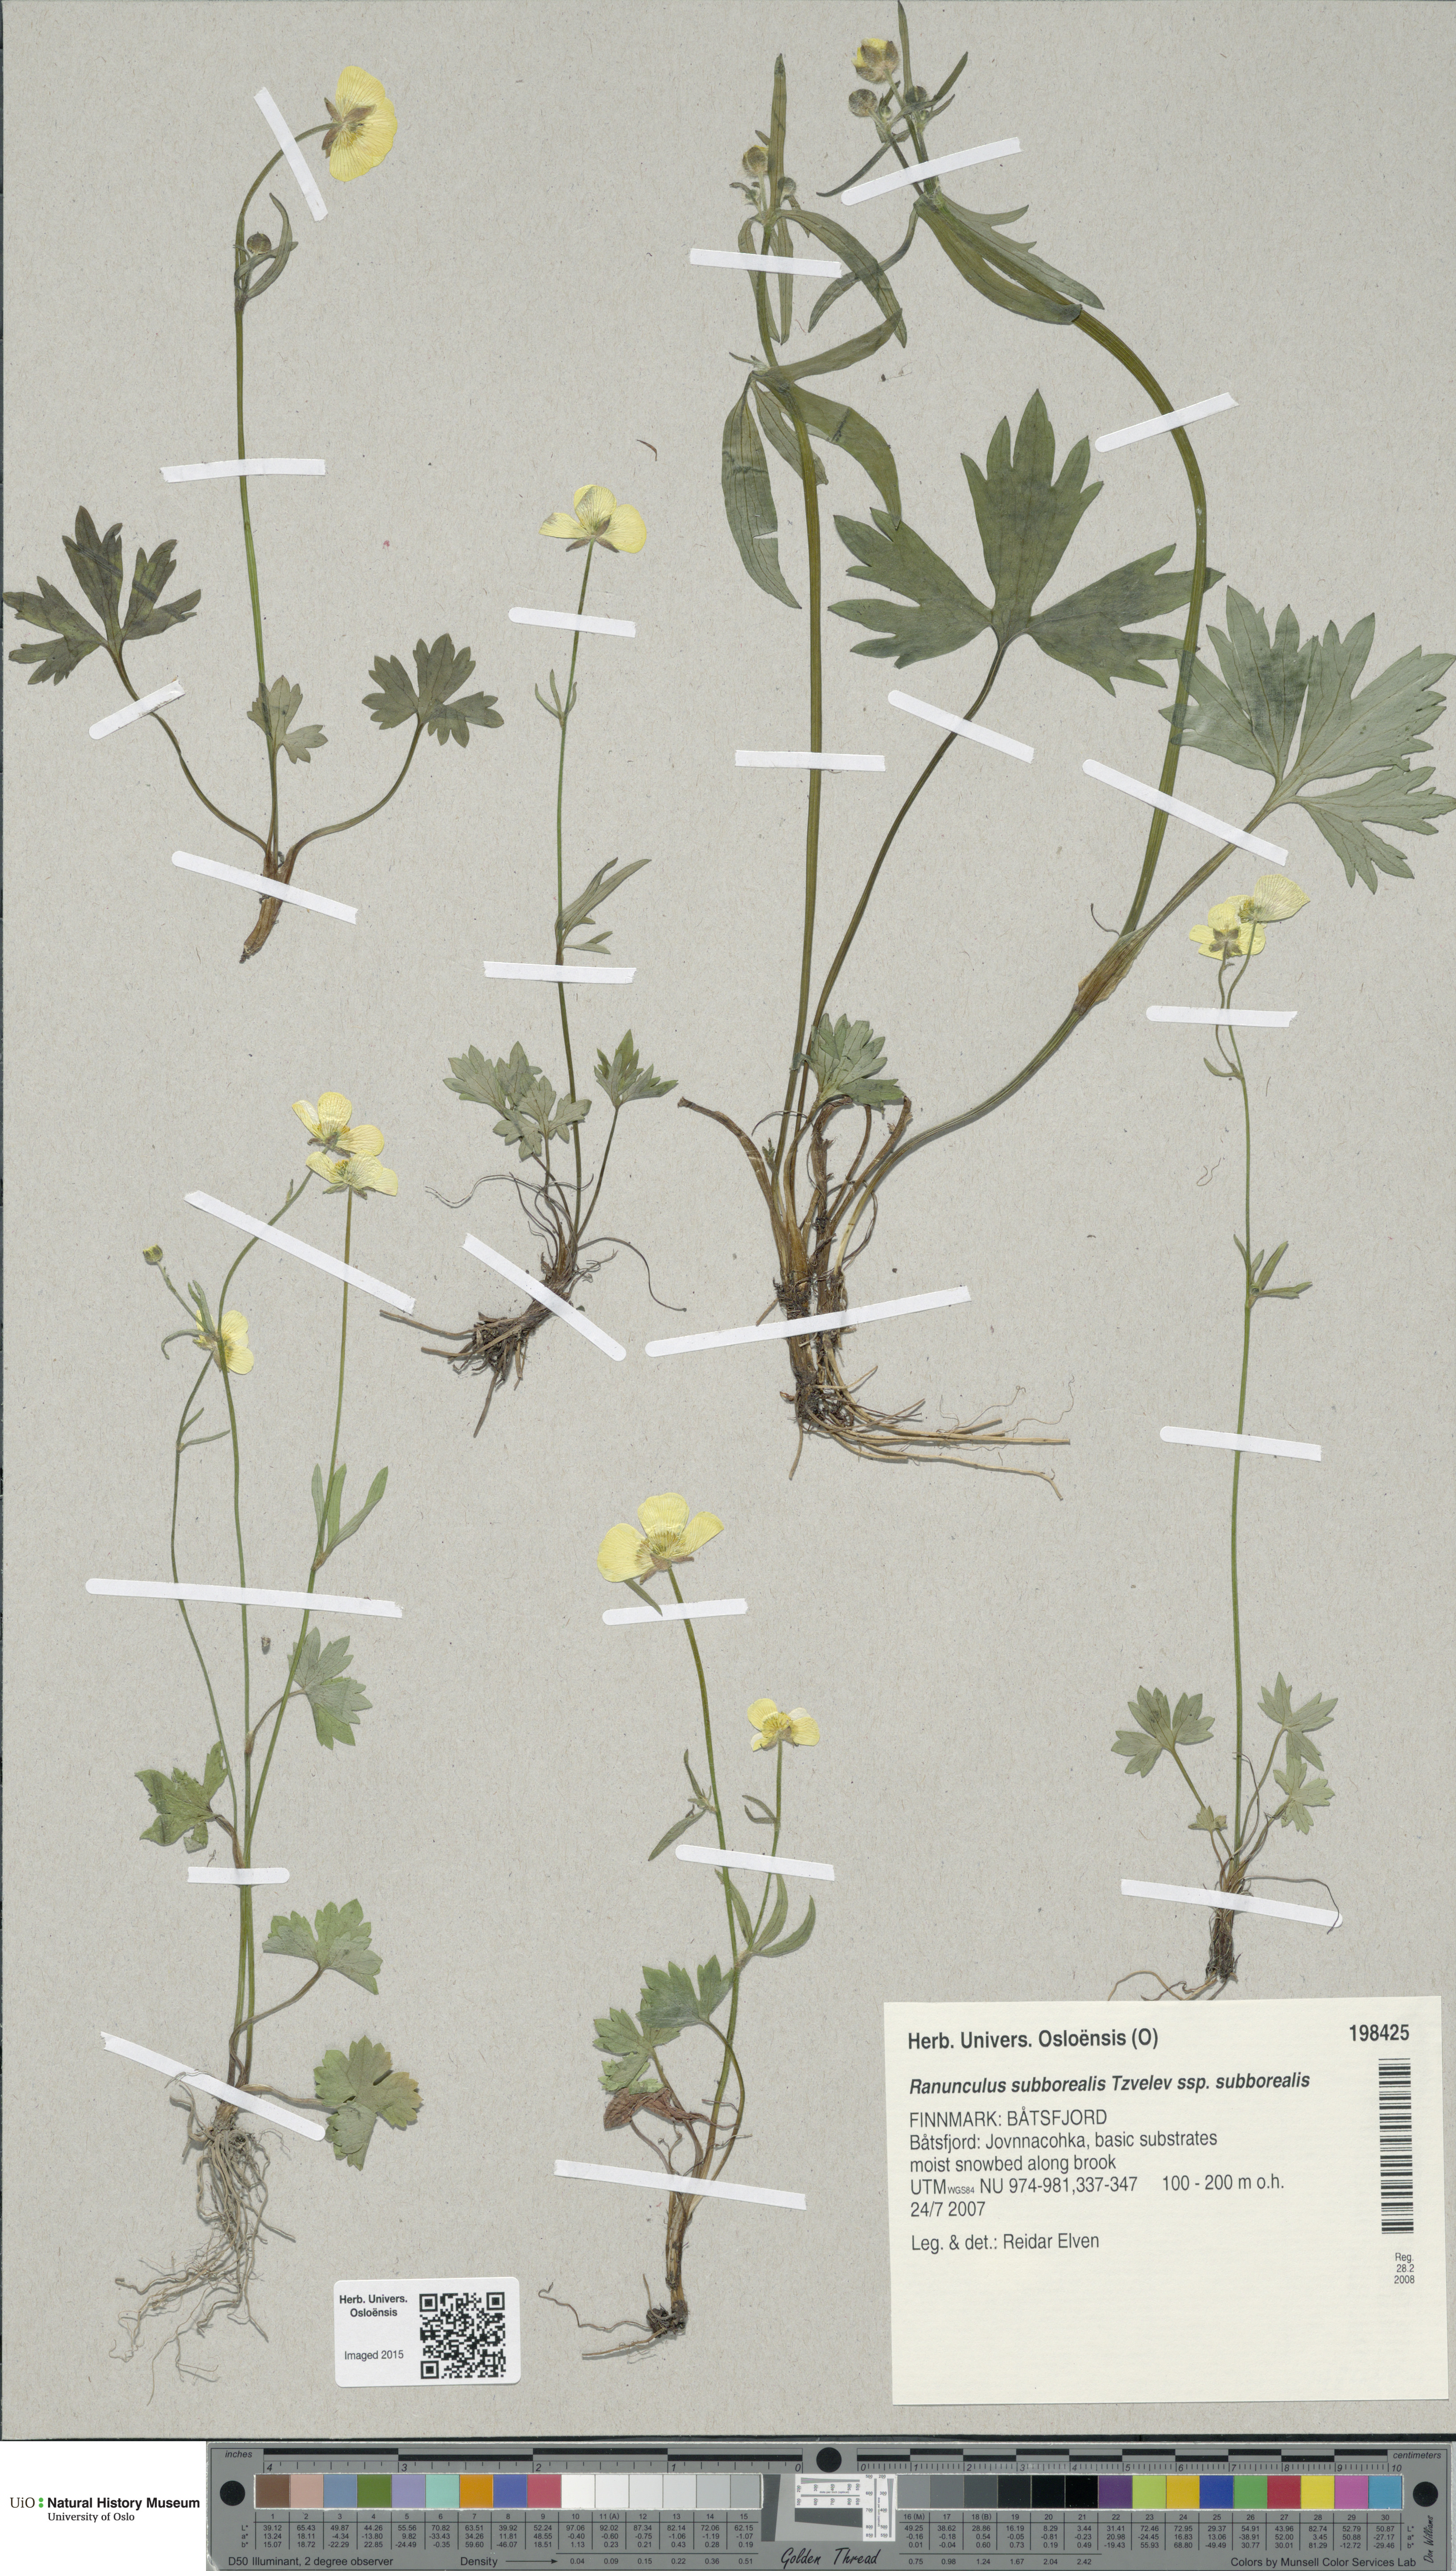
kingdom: Plantae
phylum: Tracheophyta
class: Magnoliopsida
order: Ranunculales
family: Ranunculaceae
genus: Ranunculus
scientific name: Ranunculus propinquus
